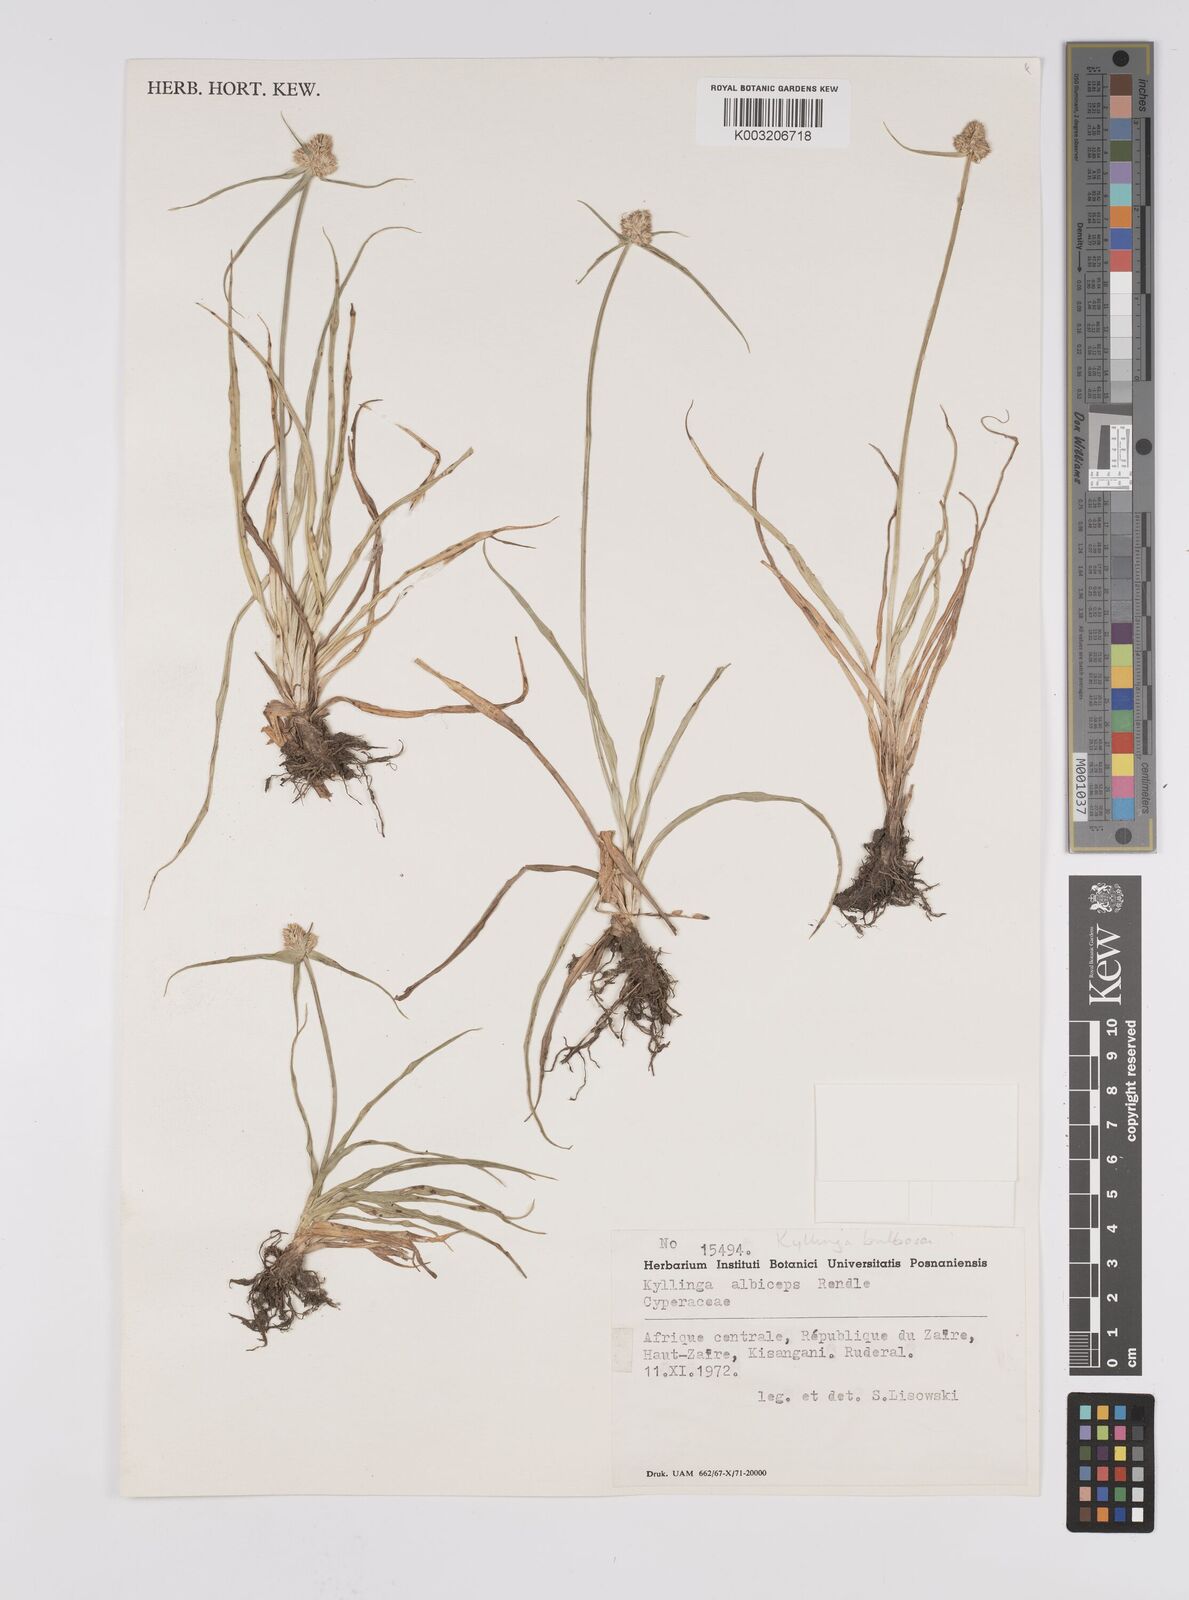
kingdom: Plantae
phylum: Tracheophyta
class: Liliopsida
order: Poales
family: Cyperaceae
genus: Cyperus
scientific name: Cyperus conglobatus
